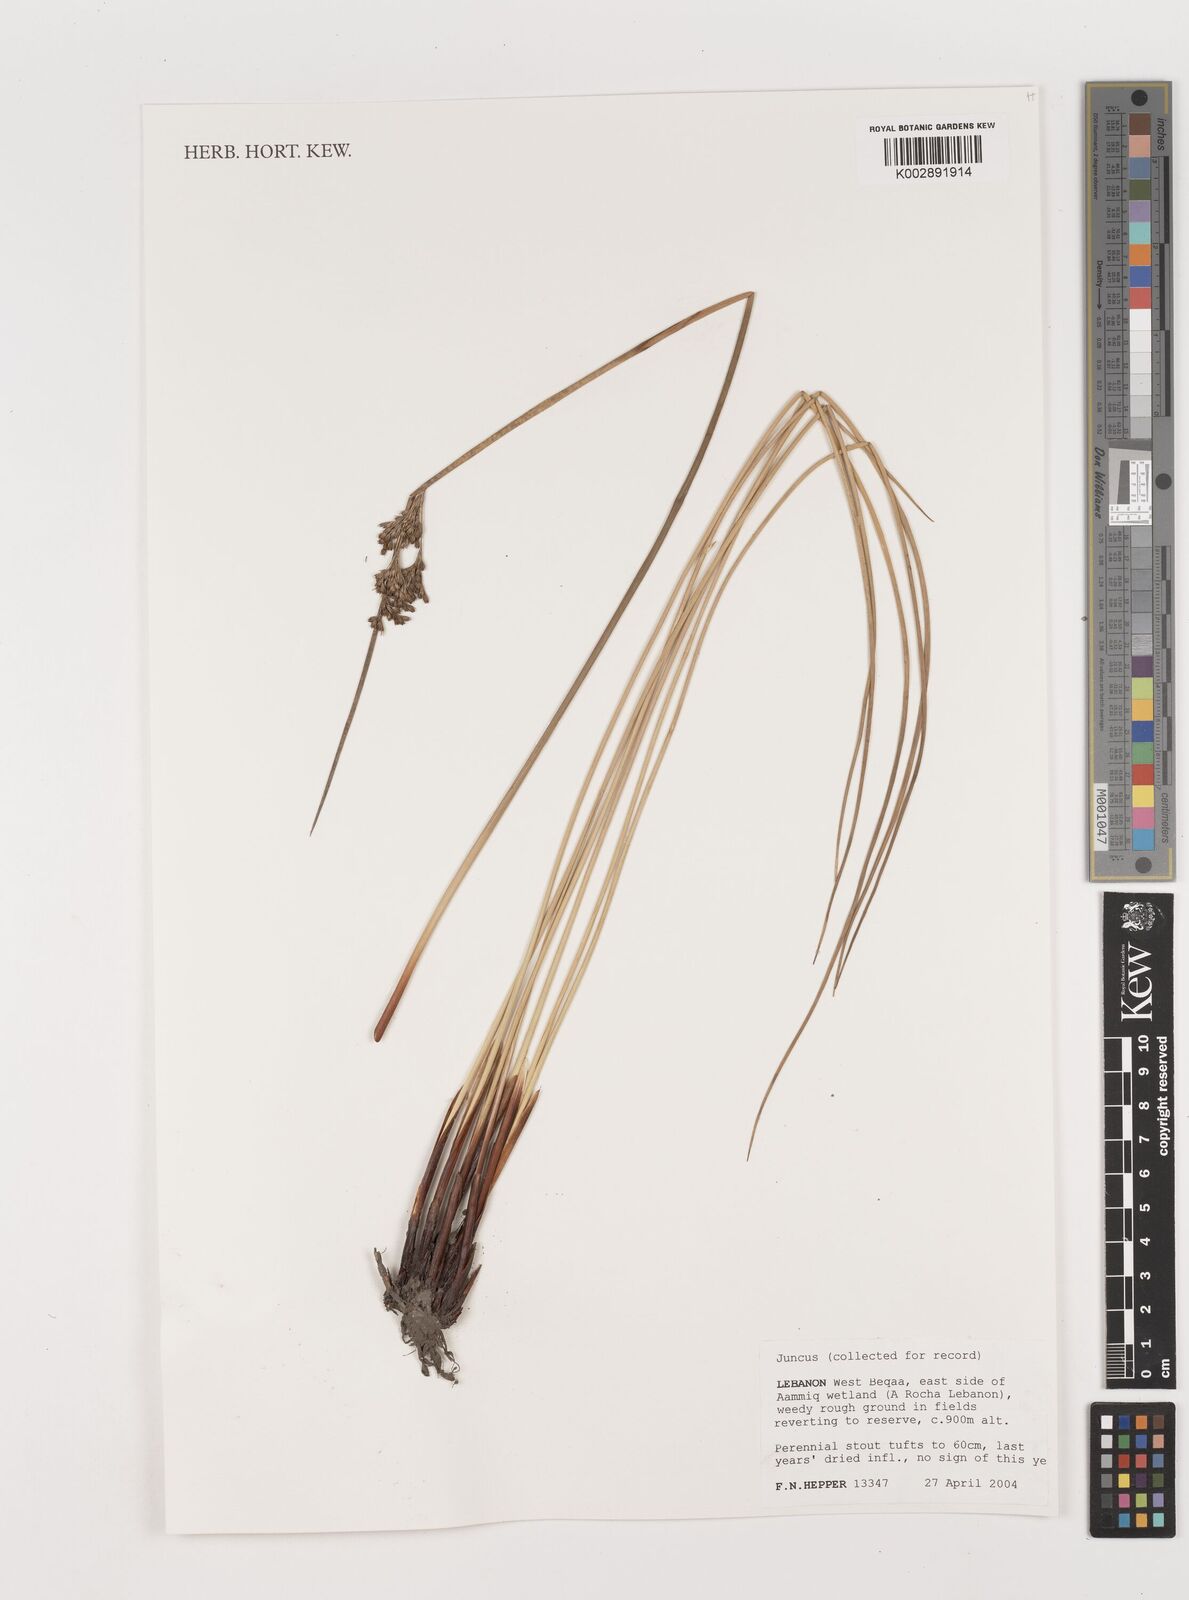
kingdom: Plantae
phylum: Tracheophyta
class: Liliopsida
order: Poales
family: Juncaceae
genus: Juncus
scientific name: Juncus
